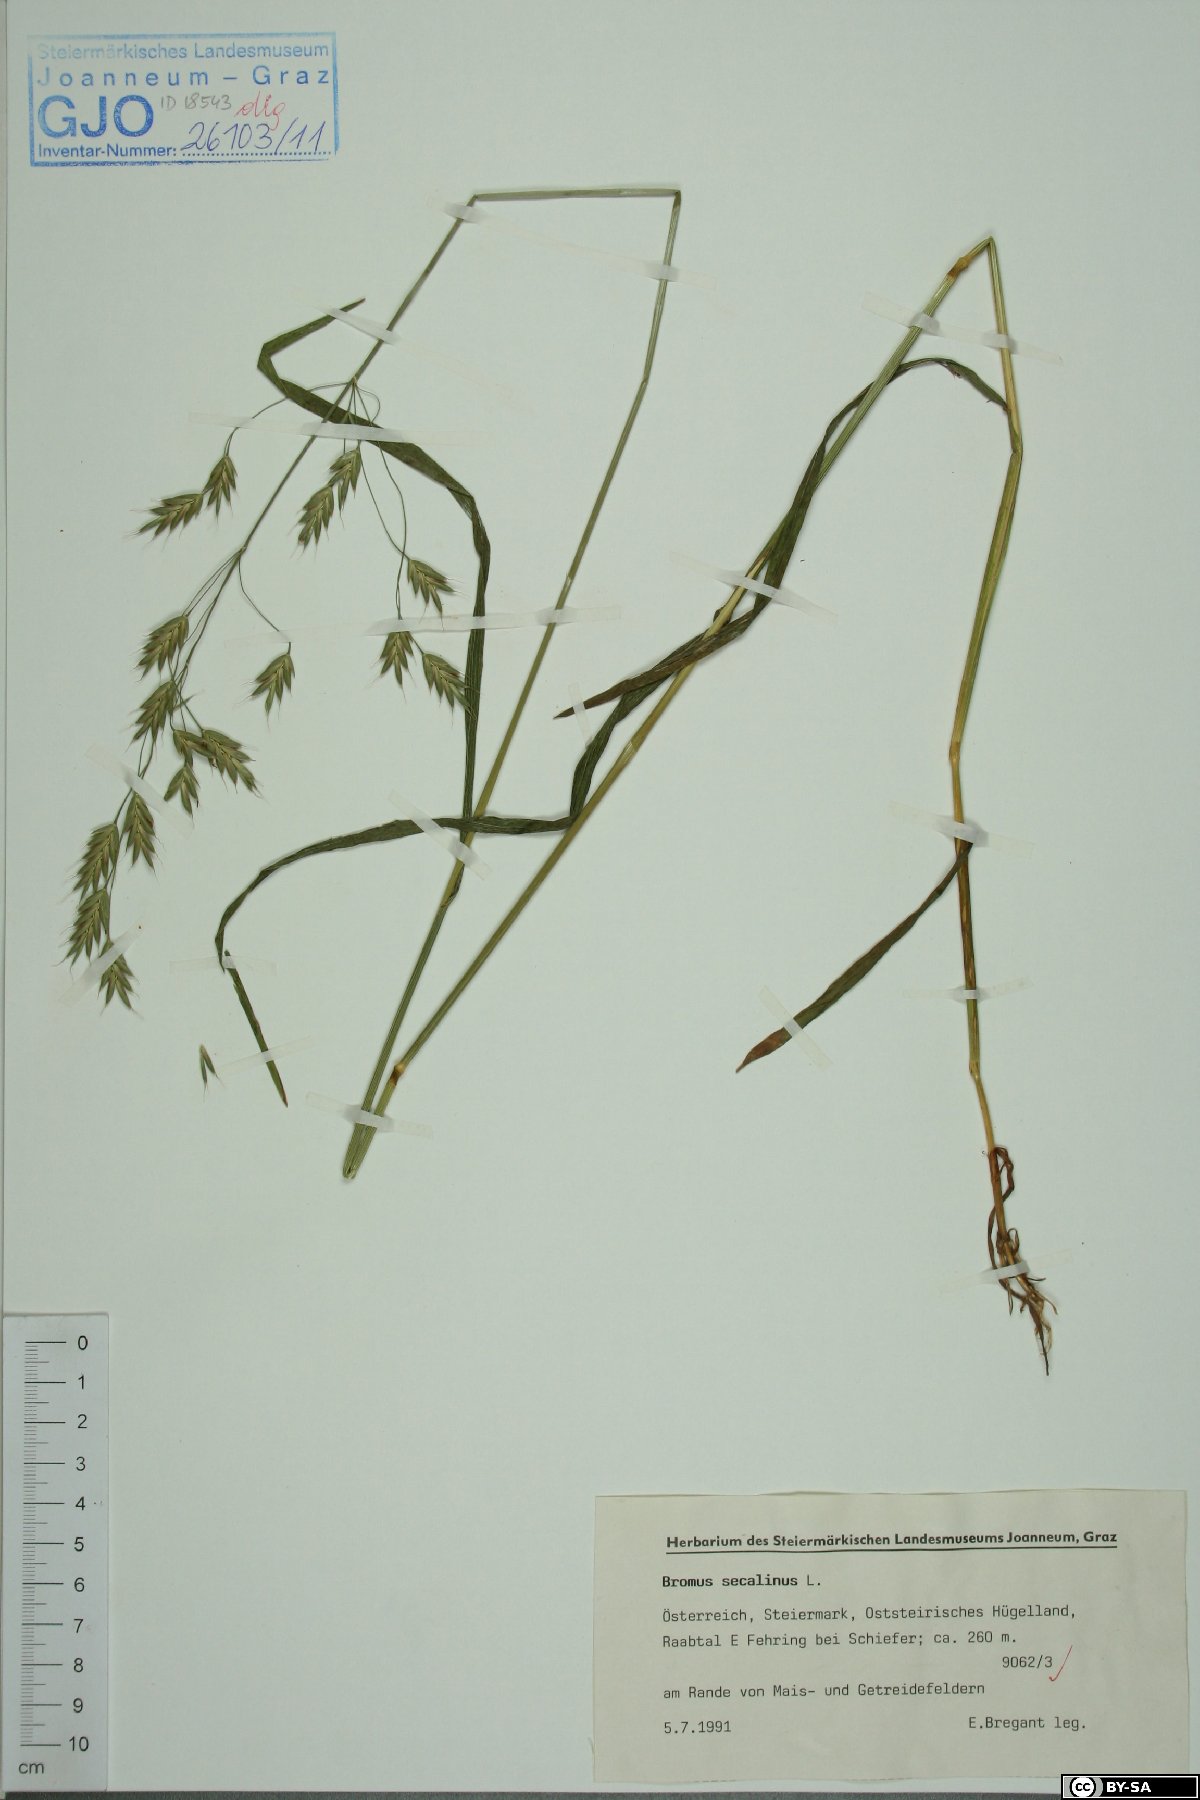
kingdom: Plantae
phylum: Tracheophyta
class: Liliopsida
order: Poales
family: Poaceae
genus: Bromus
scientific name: Bromus secalinus
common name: Rye brome
